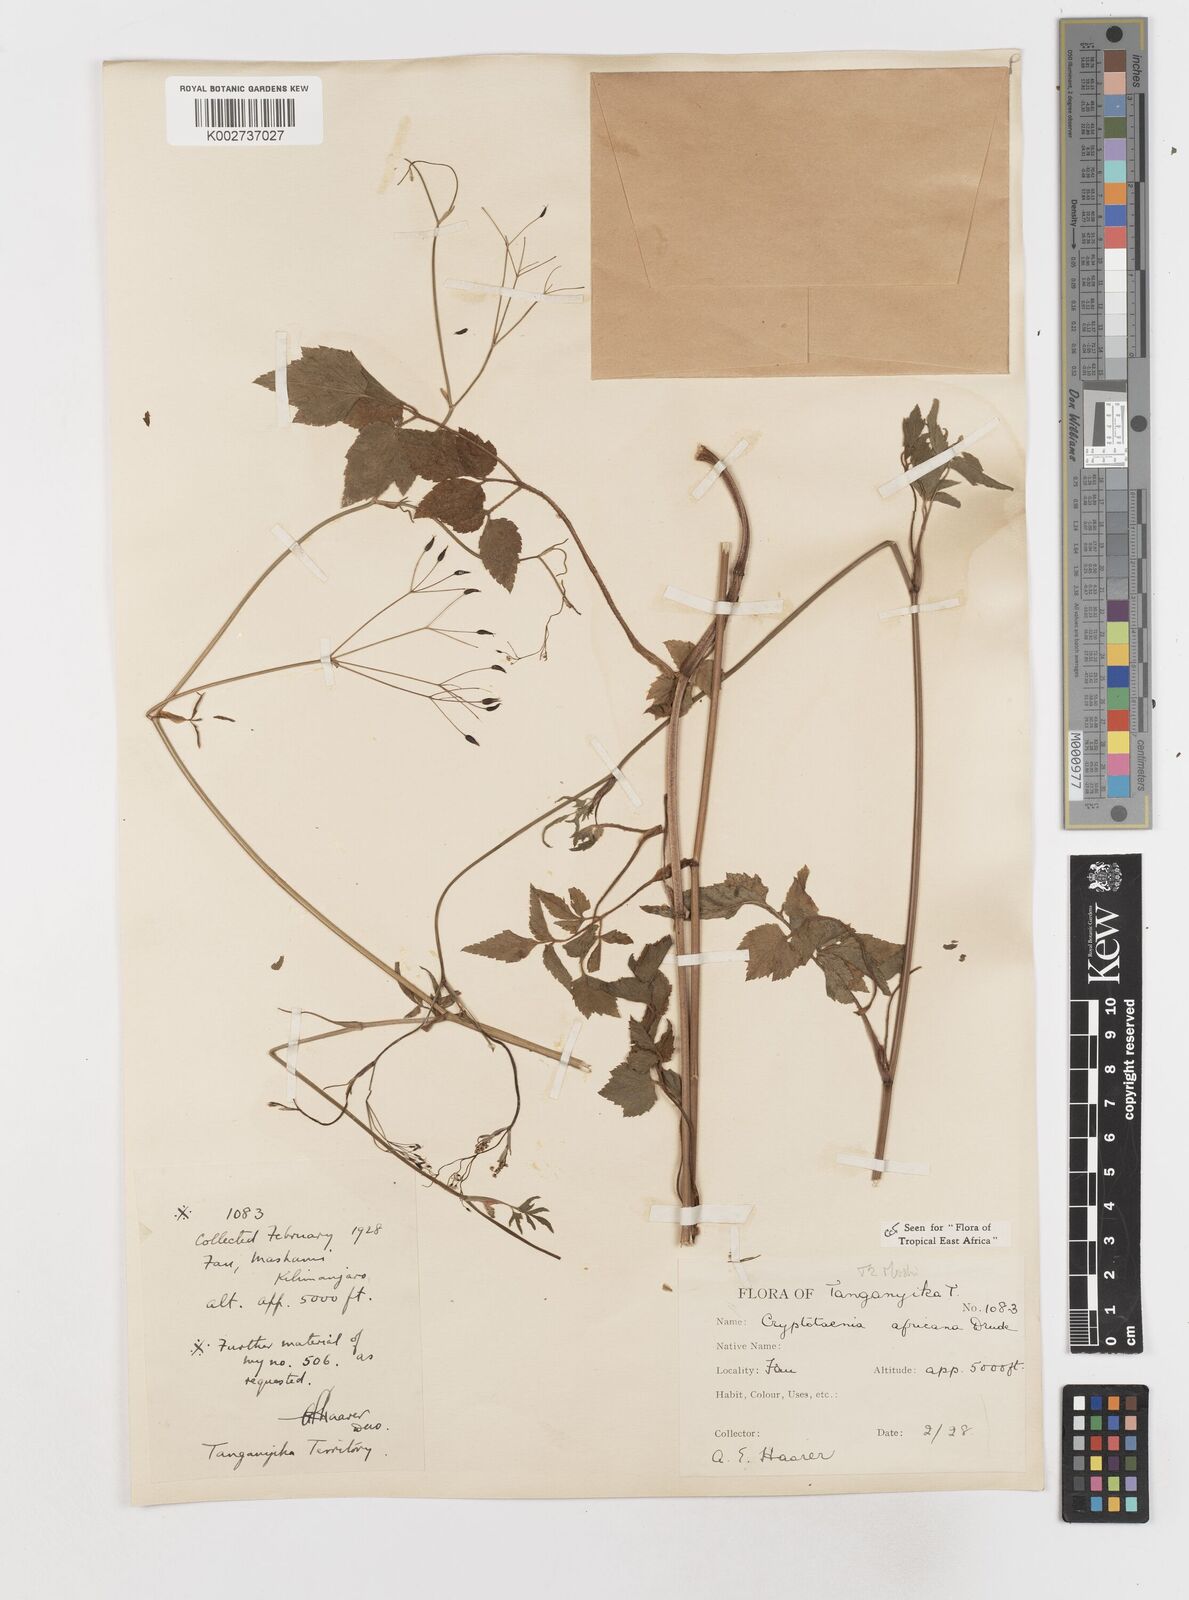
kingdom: Plantae
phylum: Tracheophyta
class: Magnoliopsida
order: Apiales
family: Apiaceae
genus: Cryptotaenia
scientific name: Cryptotaenia africana
